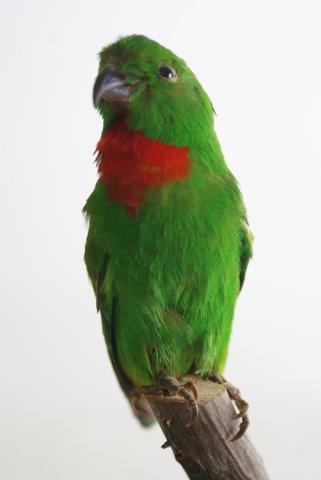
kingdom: Animalia
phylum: Chordata
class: Aves
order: Psittaciformes
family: Psittacidae
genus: Loriculus
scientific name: Loriculus galgulus
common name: Blue-crowned hanging parrot
